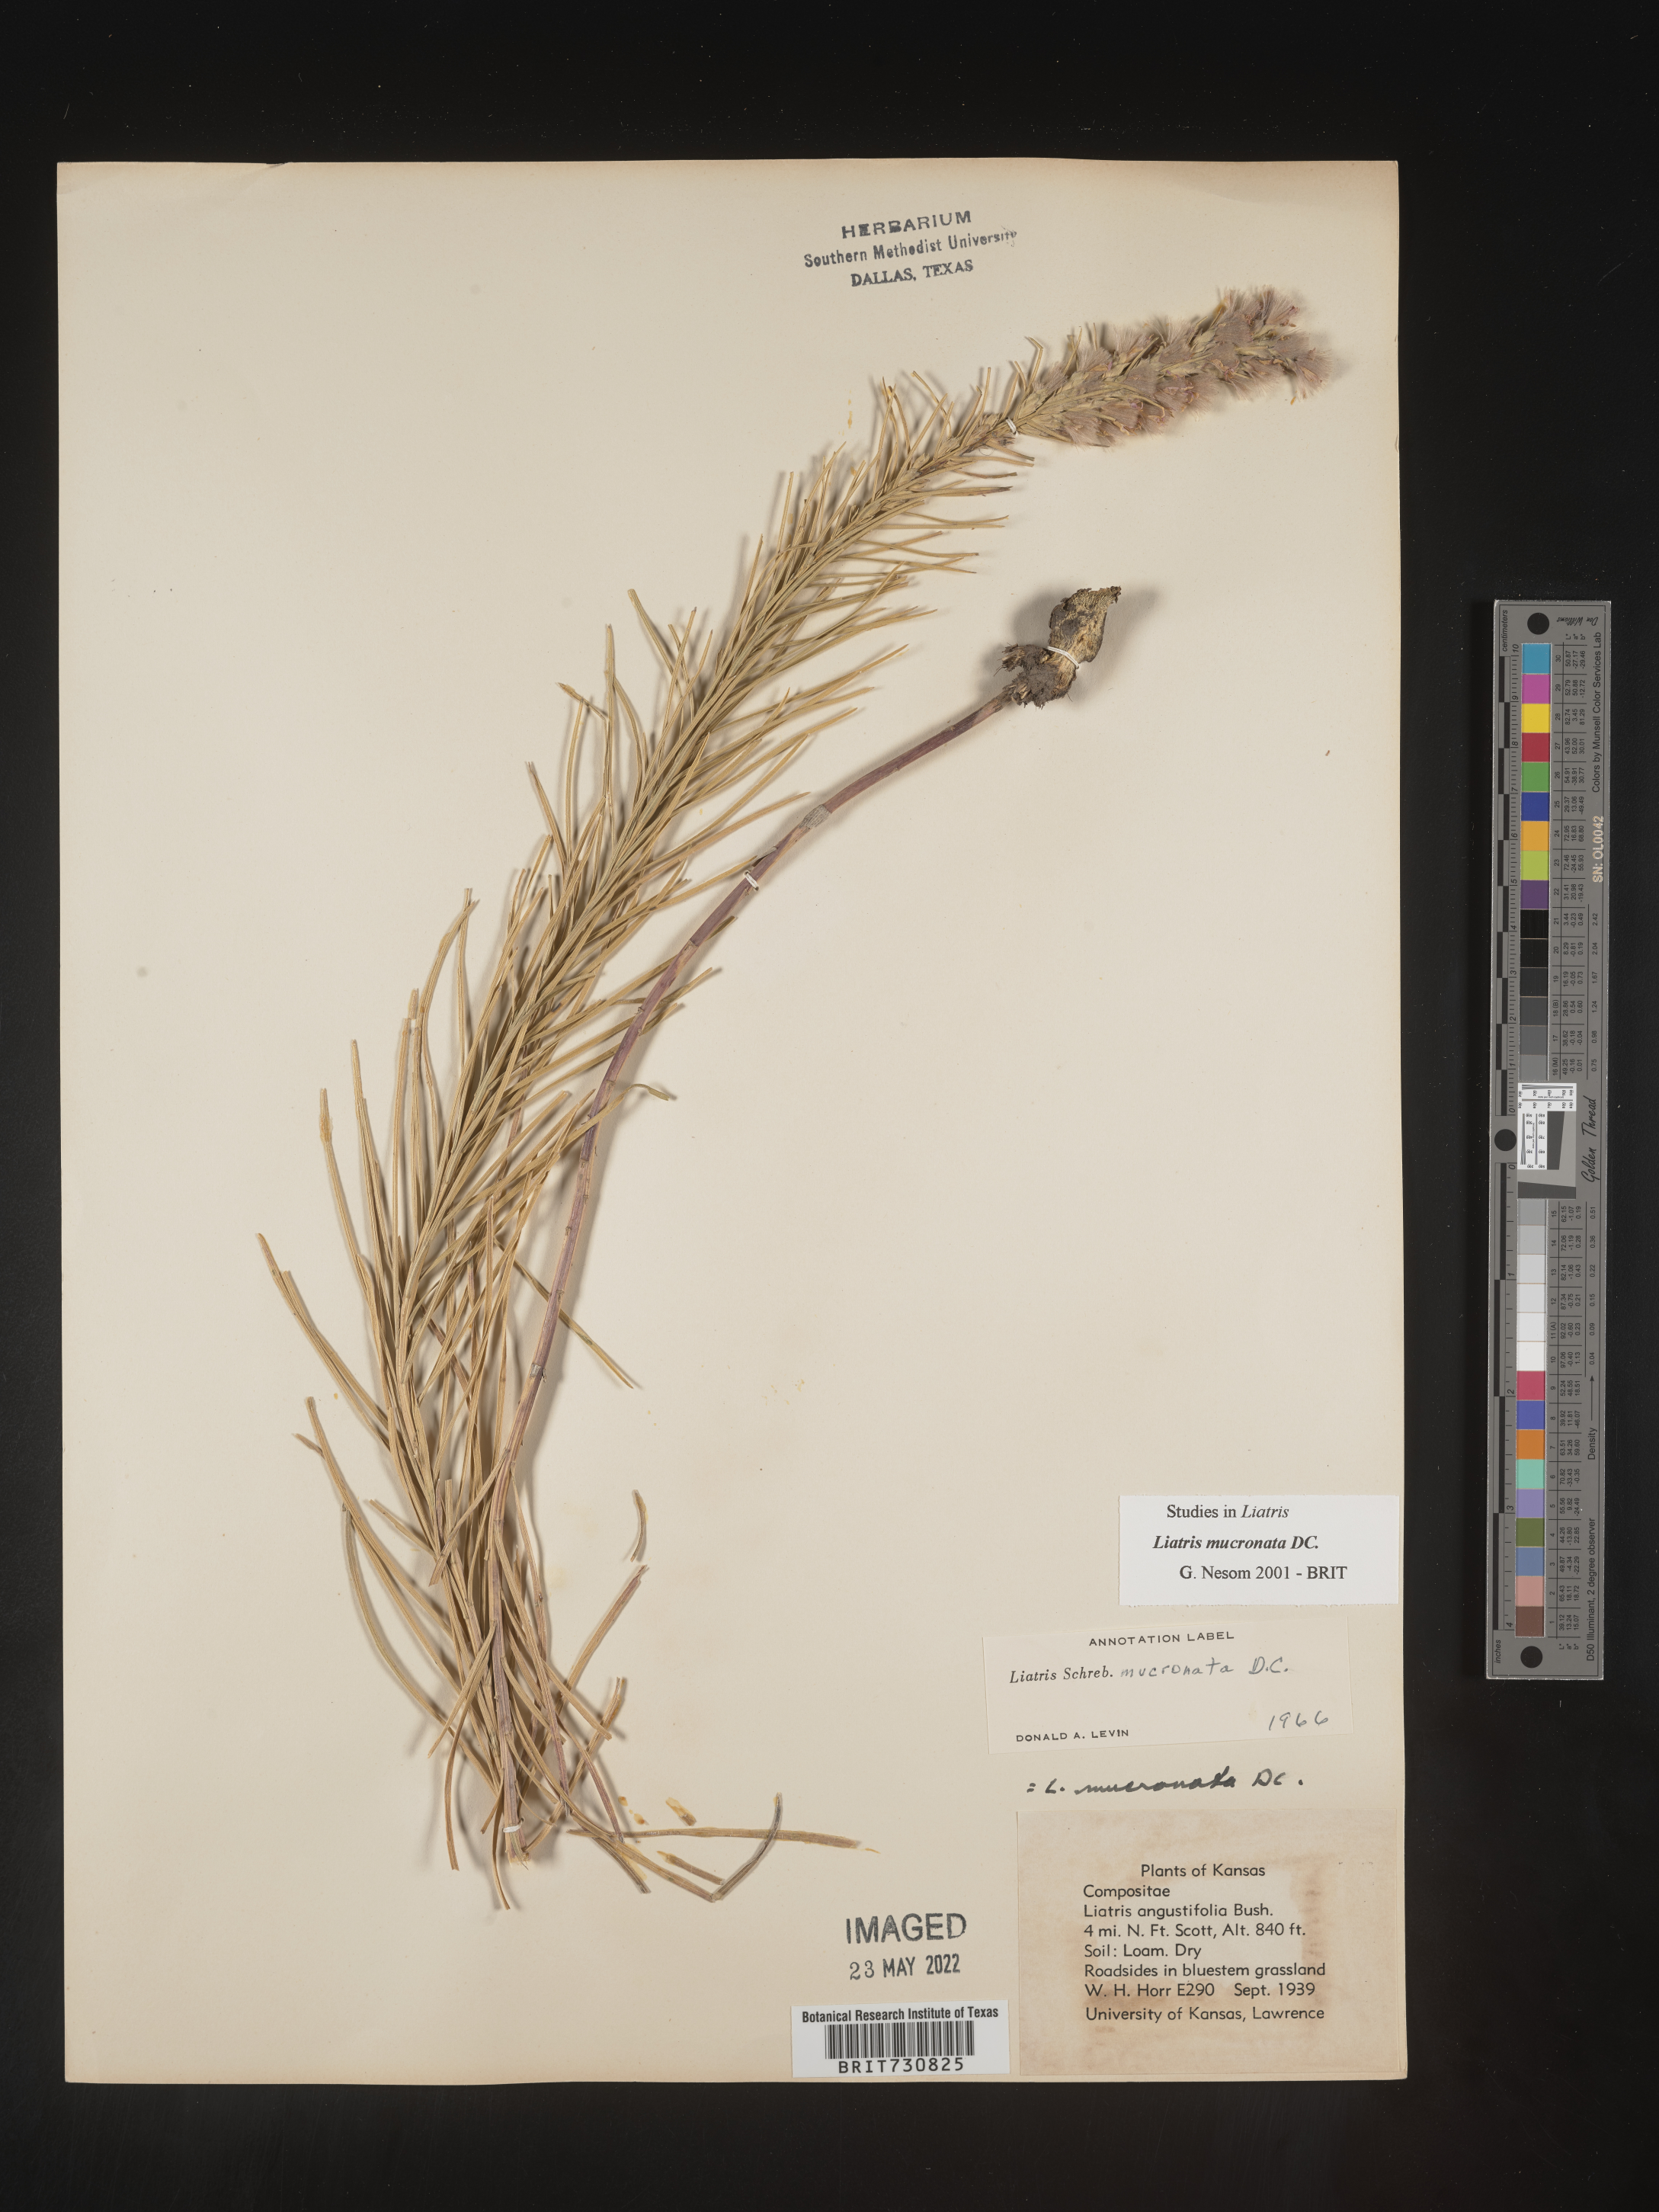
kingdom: Plantae
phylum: Tracheophyta
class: Magnoliopsida
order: Asterales
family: Asteraceae
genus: Liatris
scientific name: Liatris punctata
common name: Dotted gayfeather
